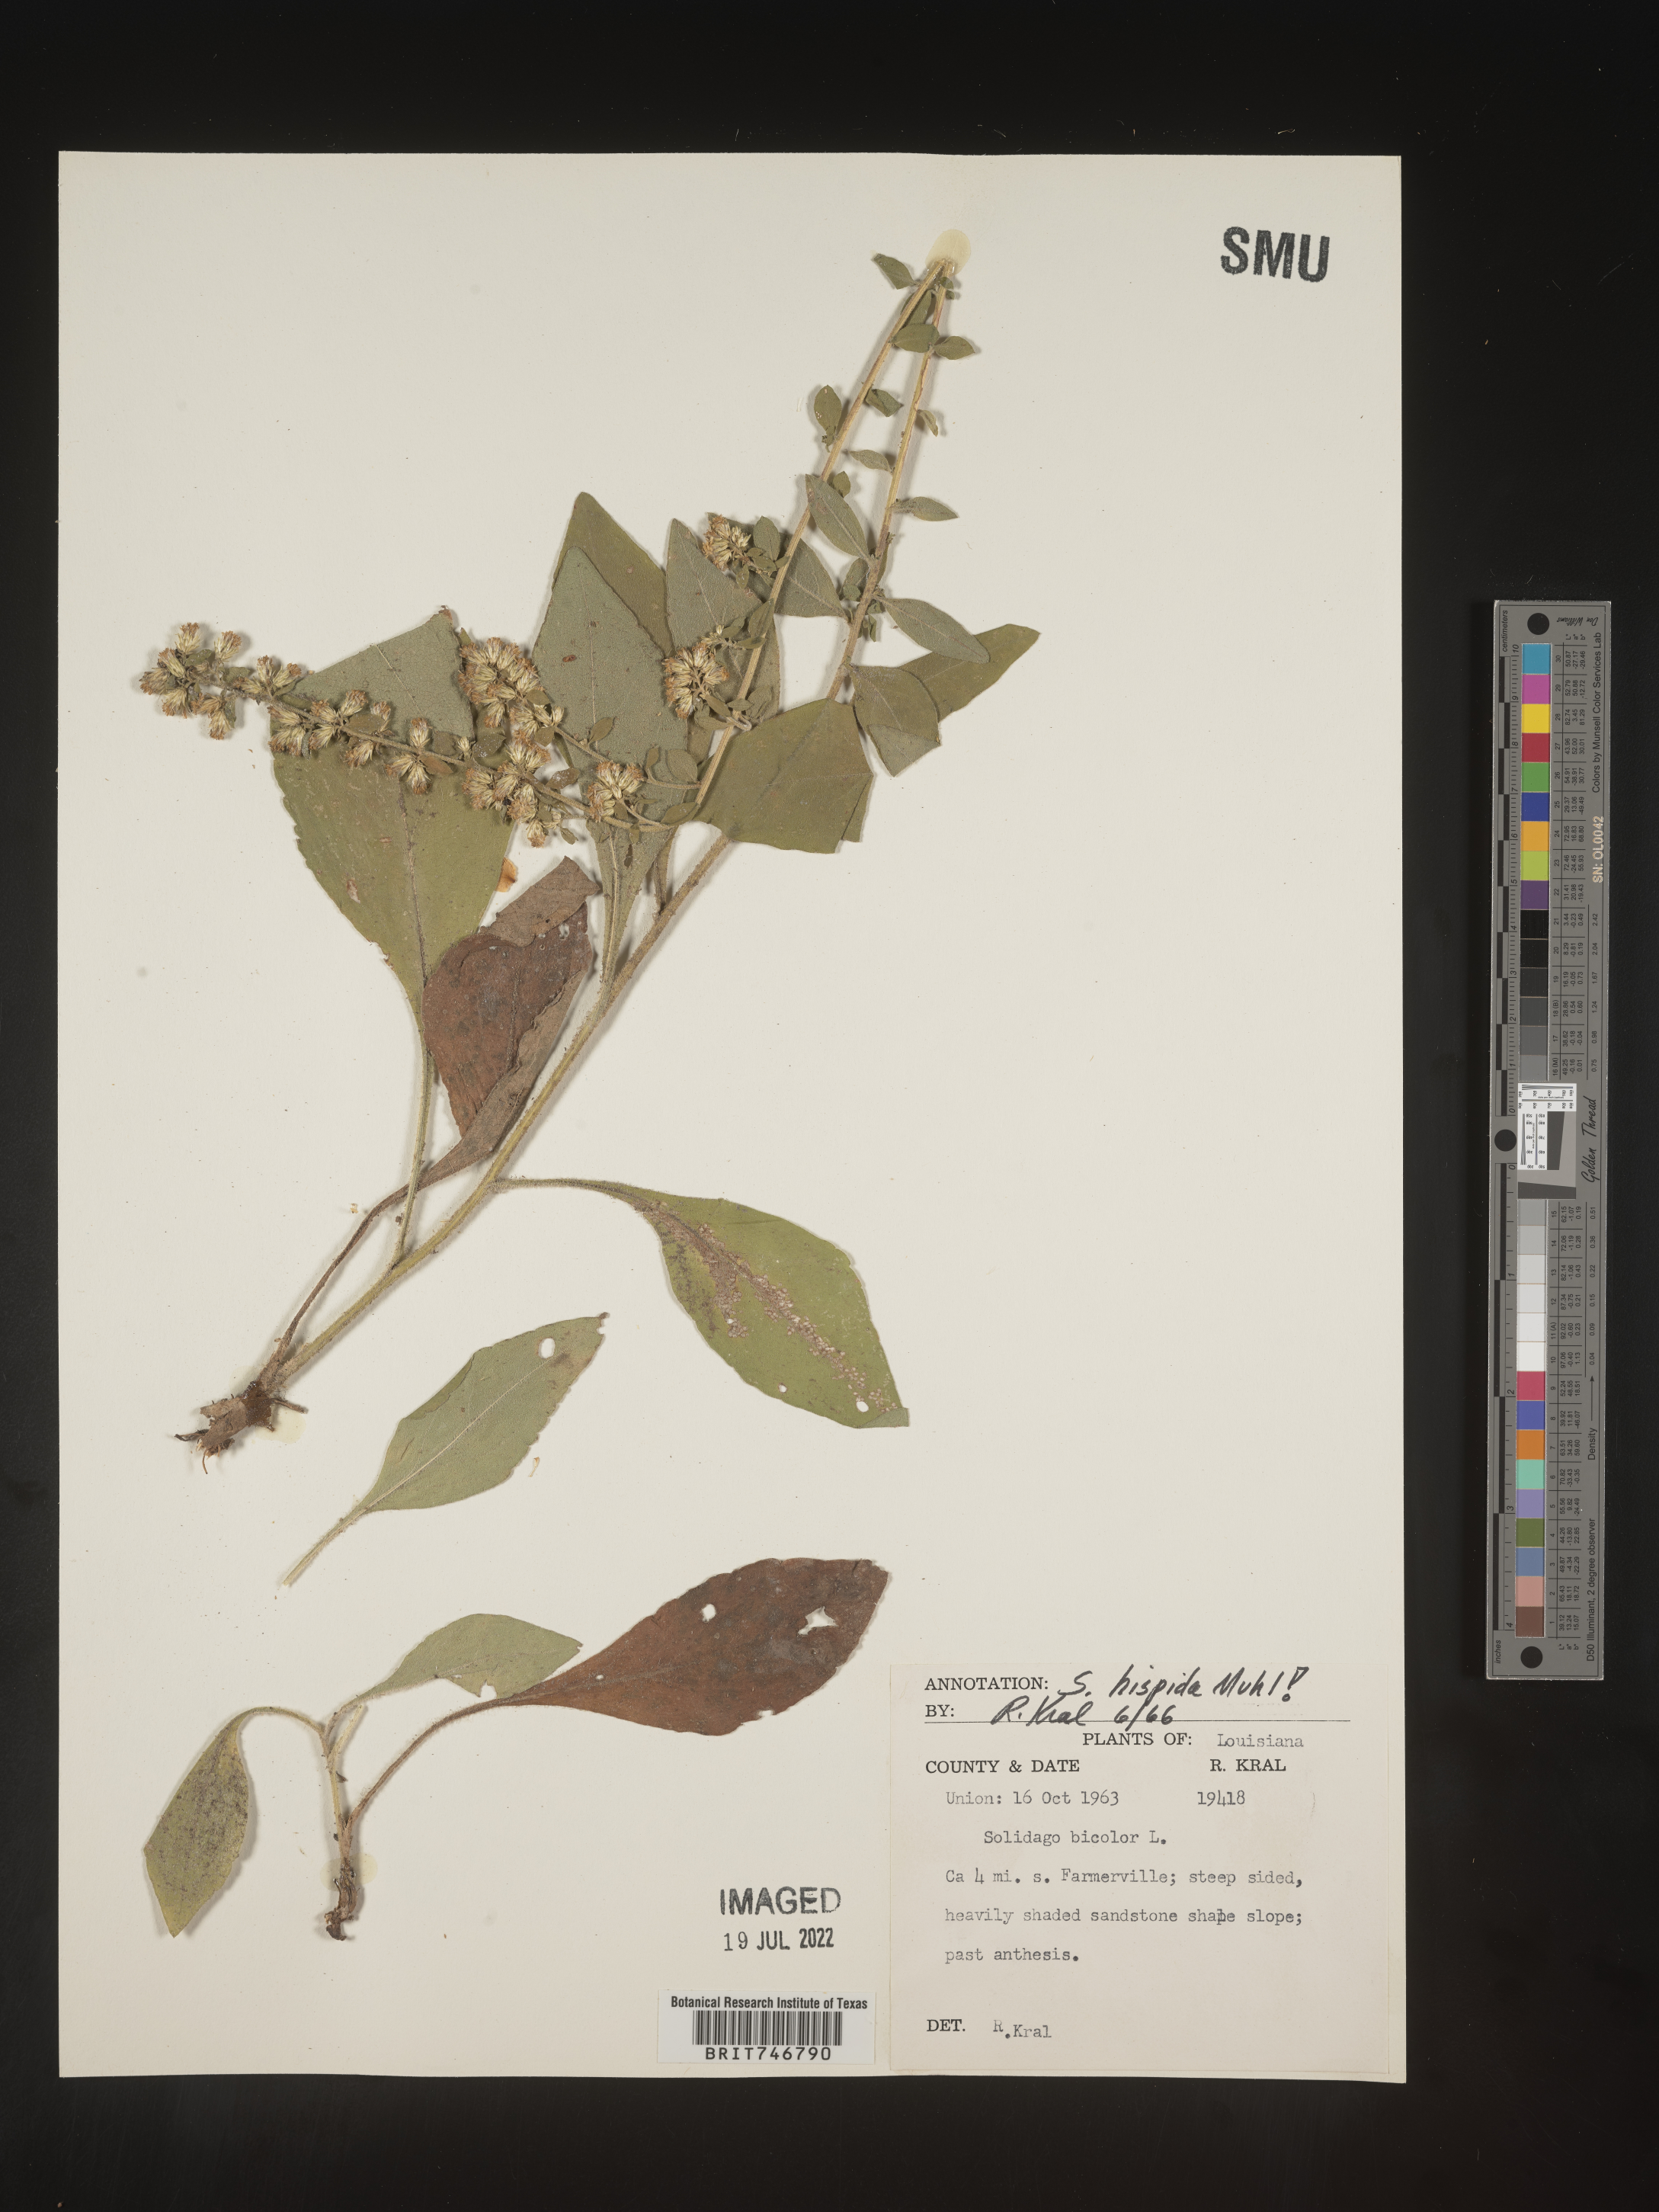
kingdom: Plantae
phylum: Tracheophyta
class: Magnoliopsida
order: Asterales
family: Asteraceae
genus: Solidago
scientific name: Solidago hispida
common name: Hairy goldenrod
